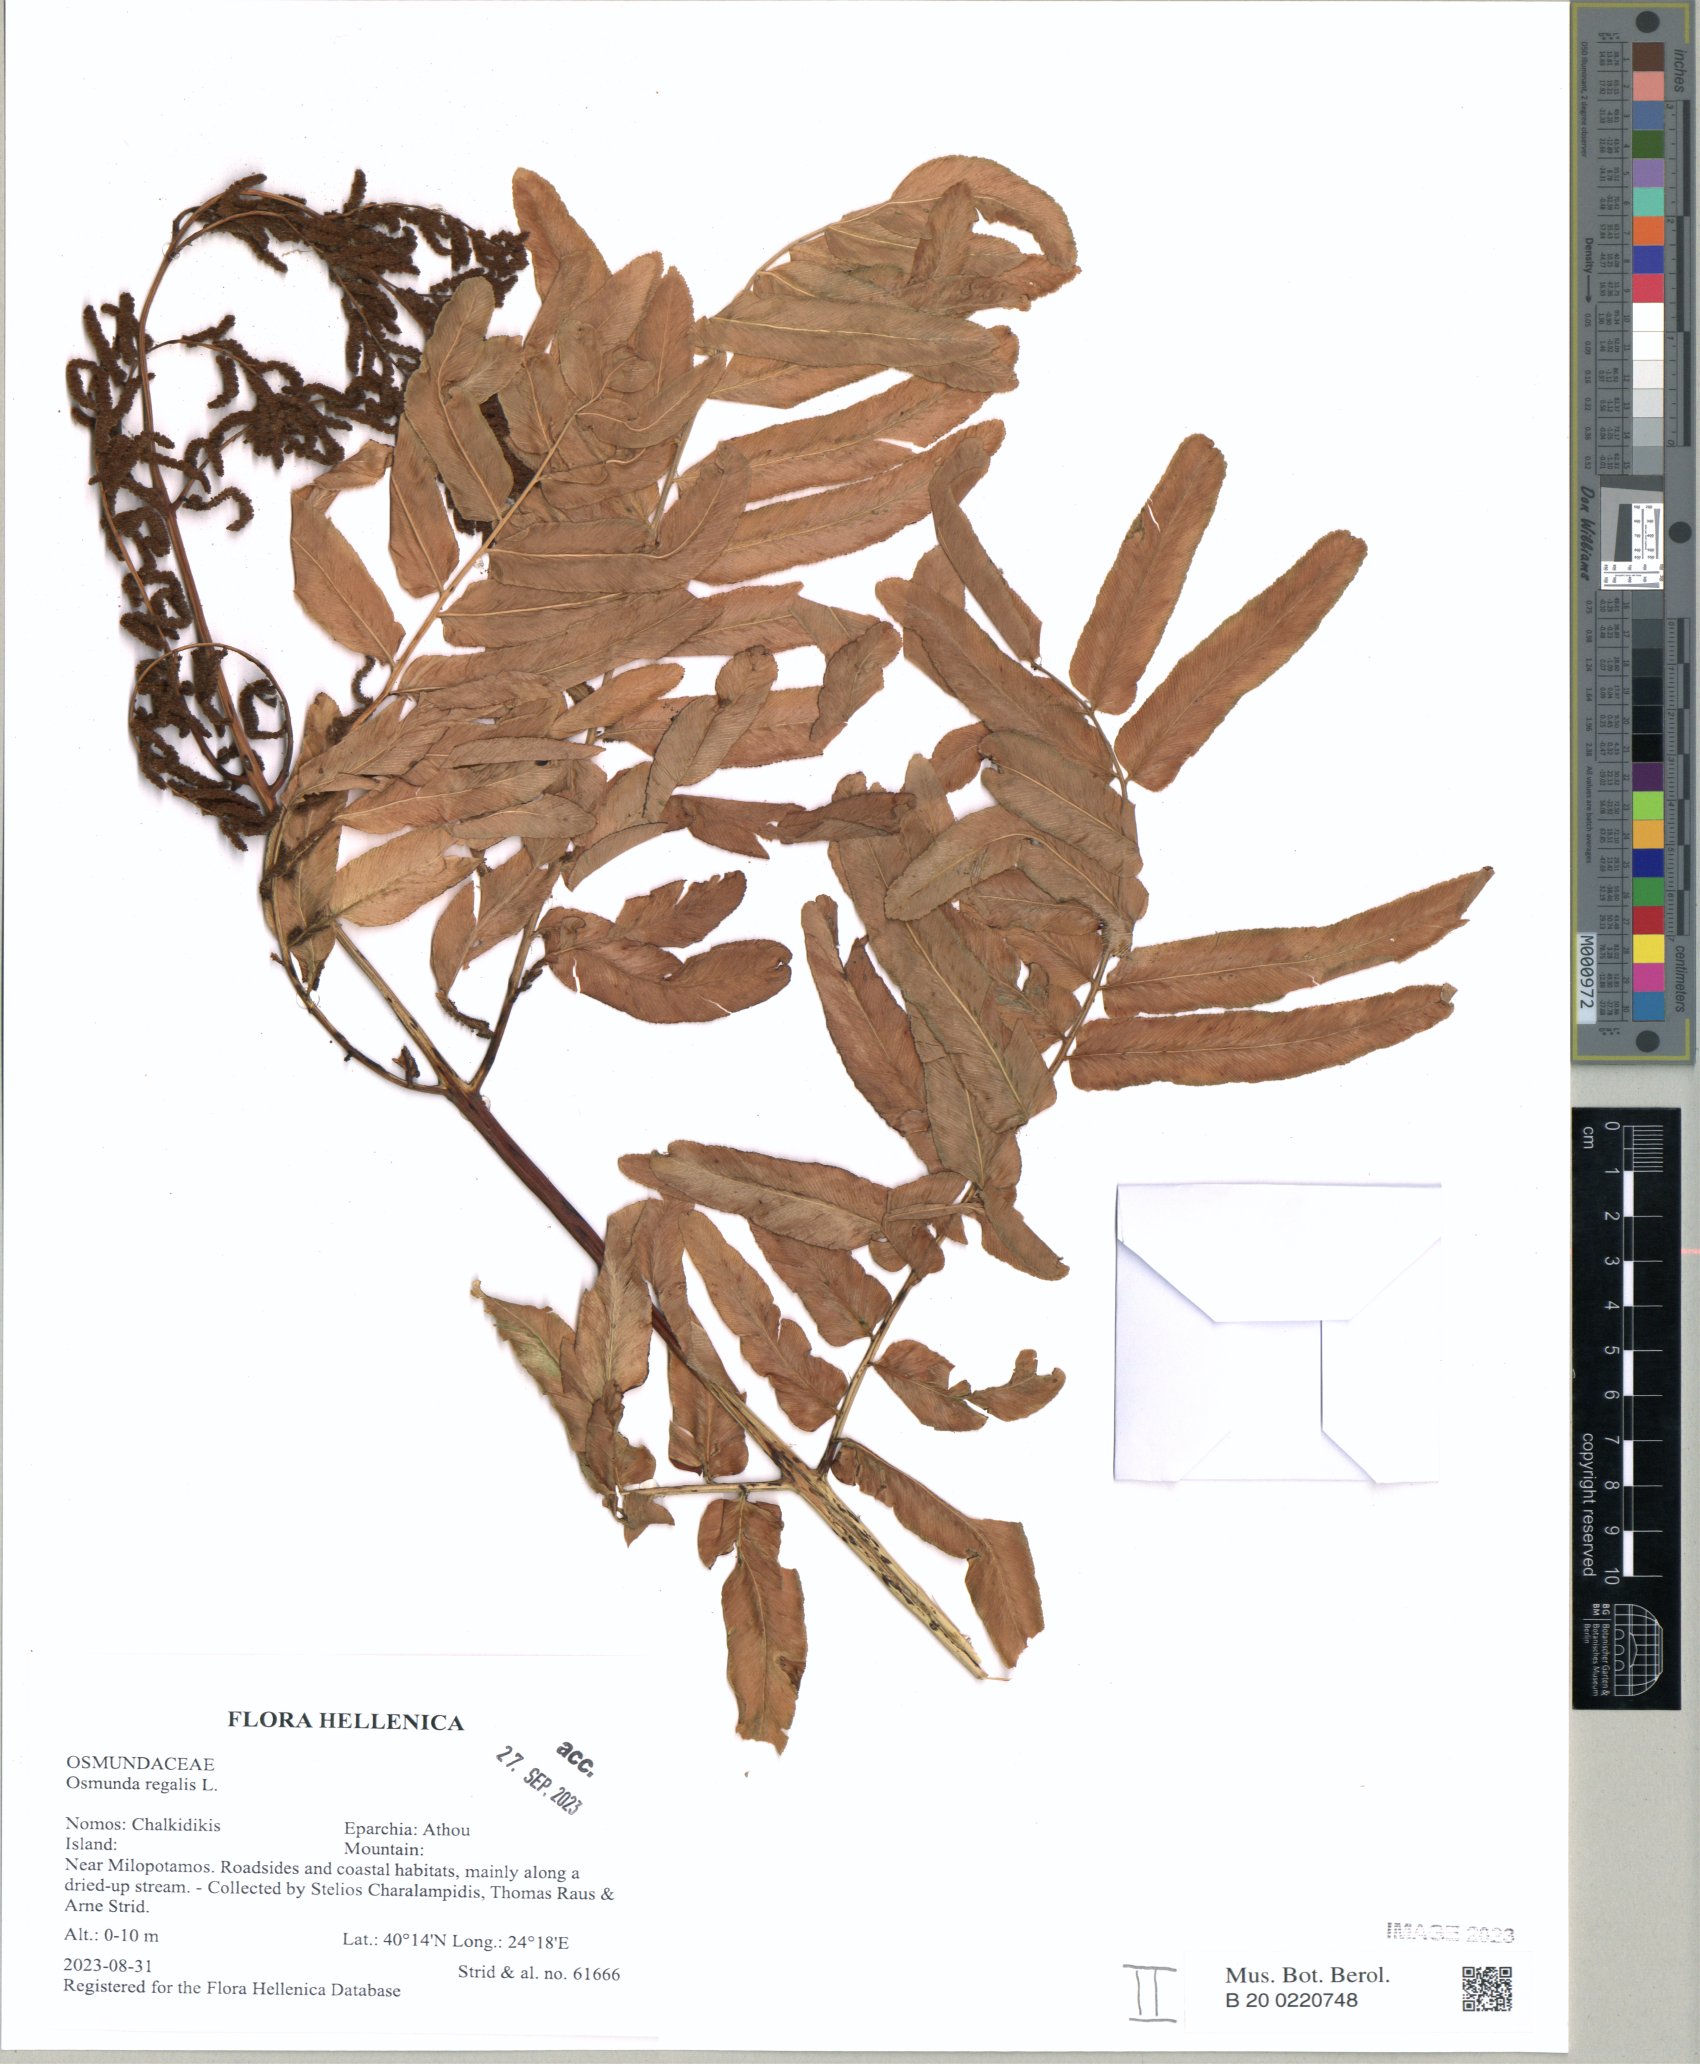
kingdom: Plantae
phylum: Tracheophyta
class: Polypodiopsida
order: Osmundales
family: Osmundaceae
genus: Osmunda
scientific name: Osmunda regalis
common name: Royal fern
